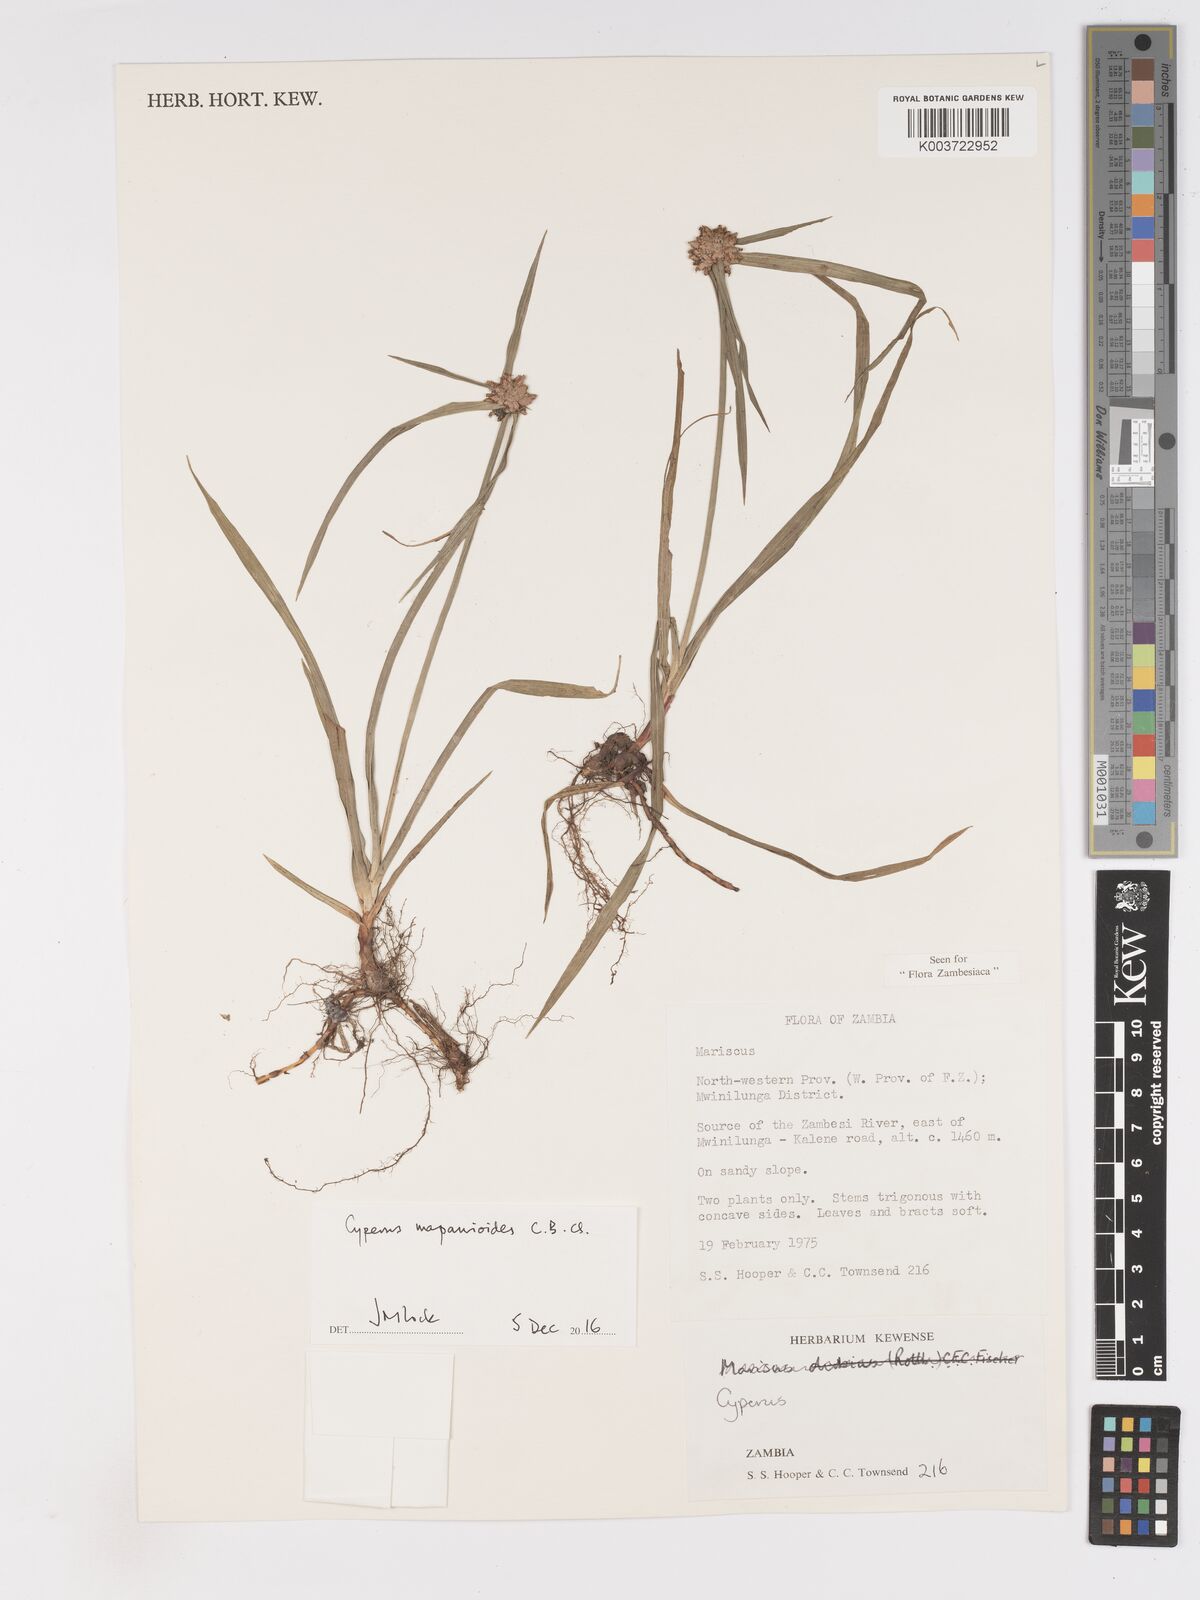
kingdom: Plantae
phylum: Tracheophyta
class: Liliopsida
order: Poales
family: Cyperaceae
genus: Cyperus
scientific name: Cyperus mapanioides
